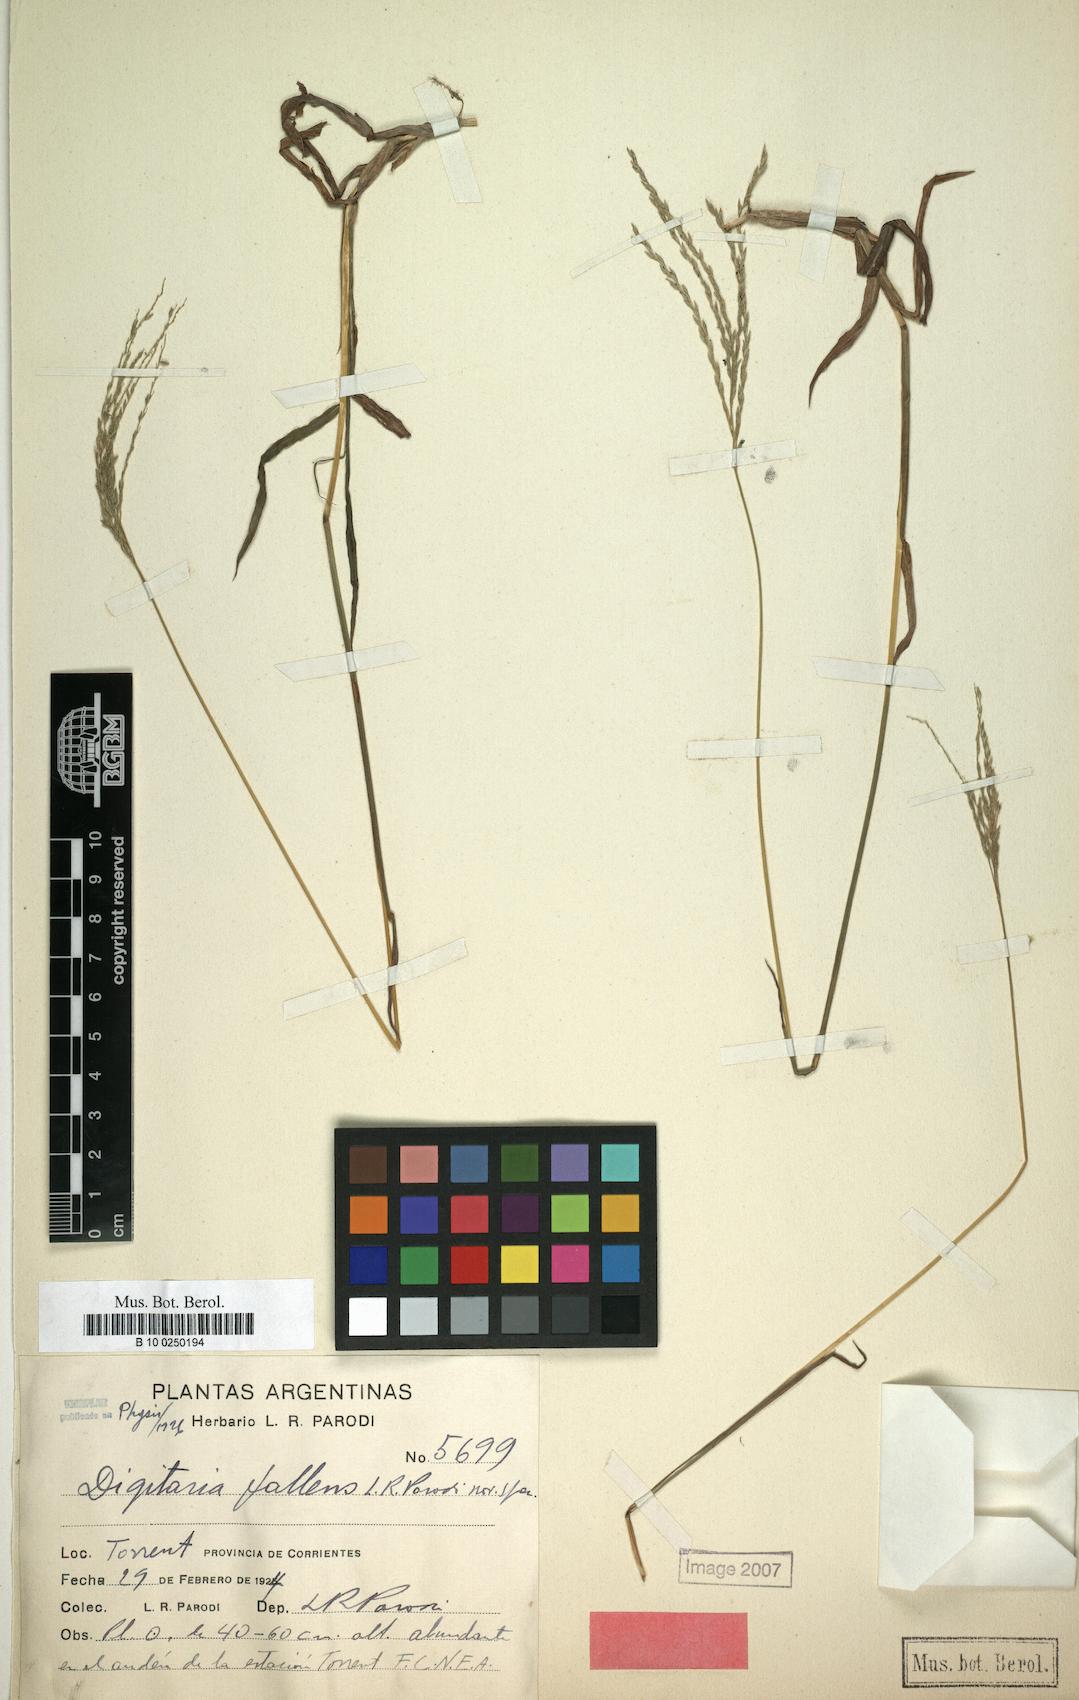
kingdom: Plantae
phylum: Tracheophyta
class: Liliopsida
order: Poales
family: Poaceae
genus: Digitaria
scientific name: Digitaria eriostachya
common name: Crabgrass
